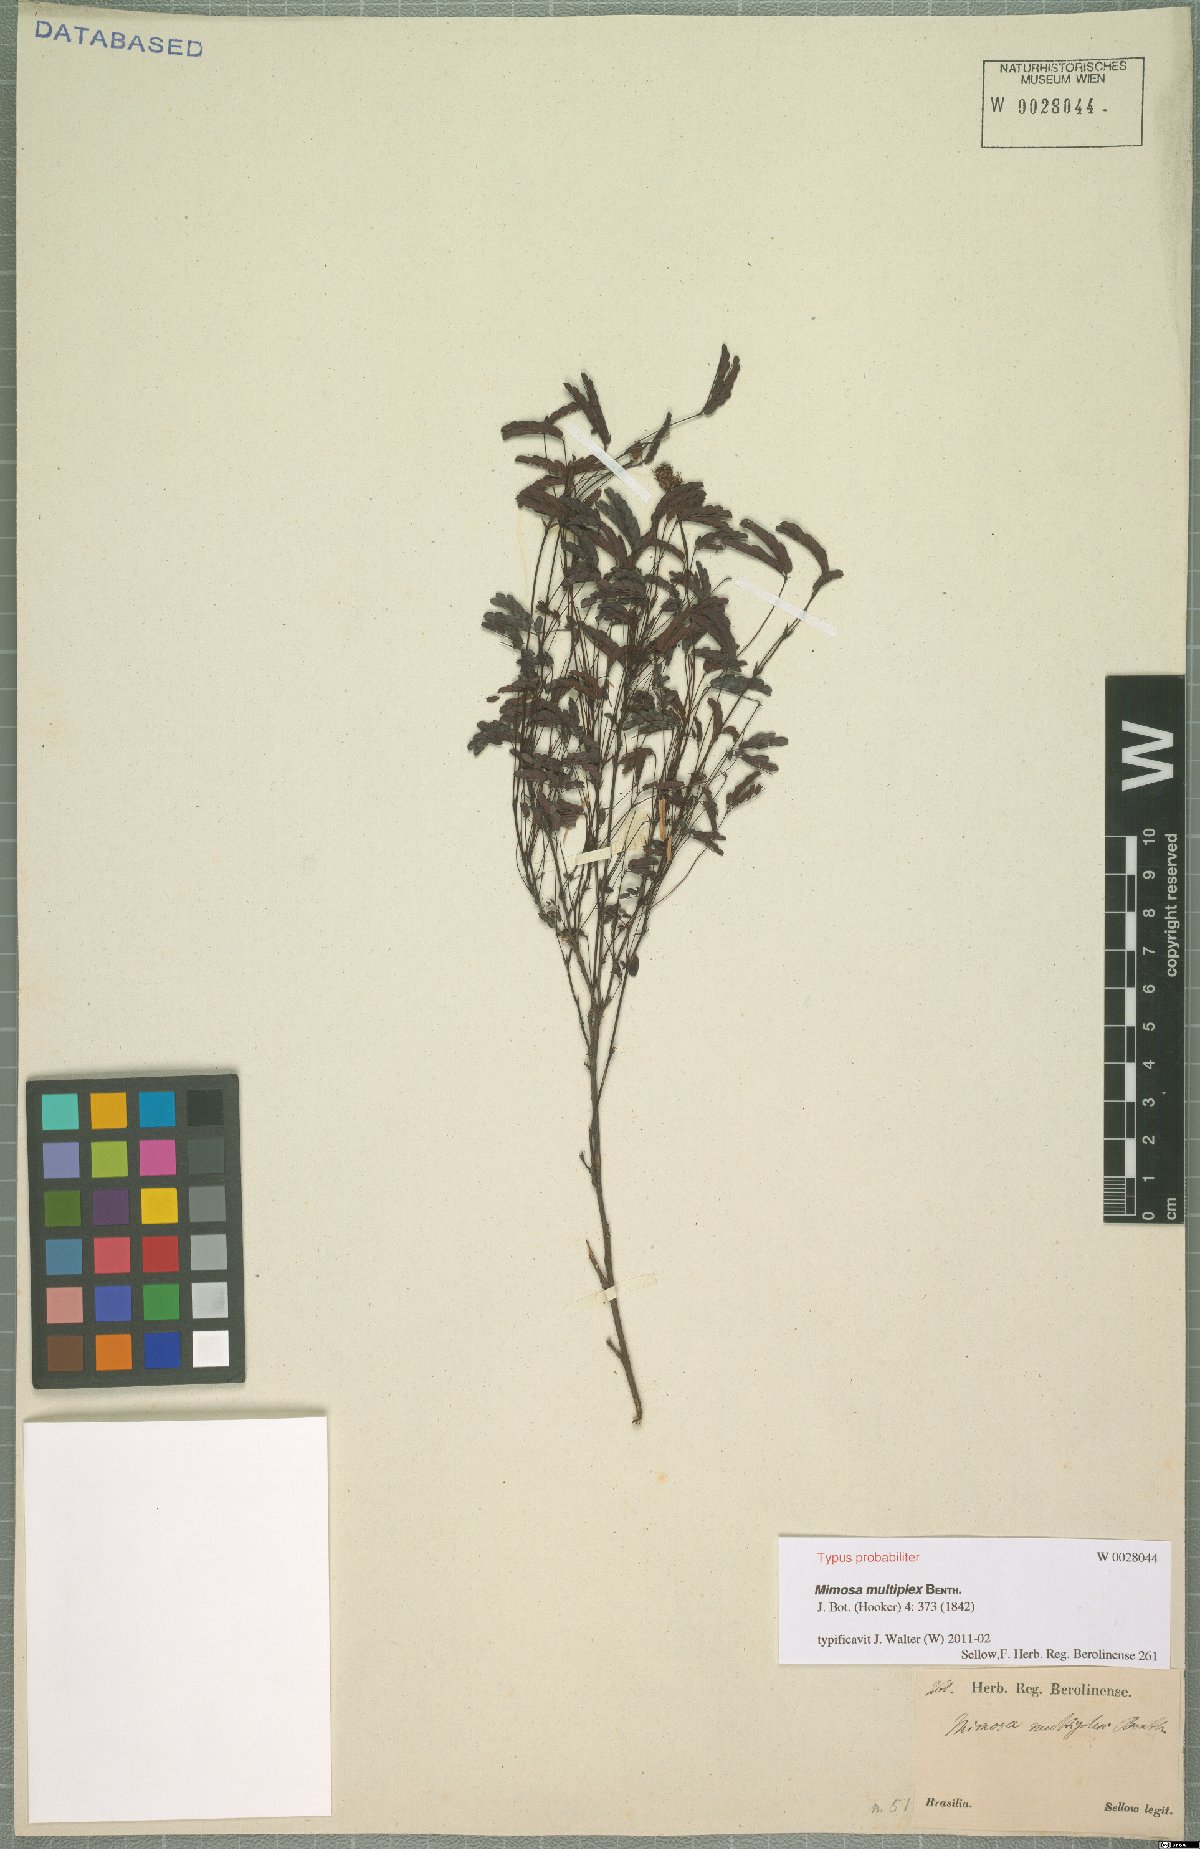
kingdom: Plantae
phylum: Tracheophyta
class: Magnoliopsida
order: Fabales
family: Fabaceae
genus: Mimosa
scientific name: Mimosa multiplex
